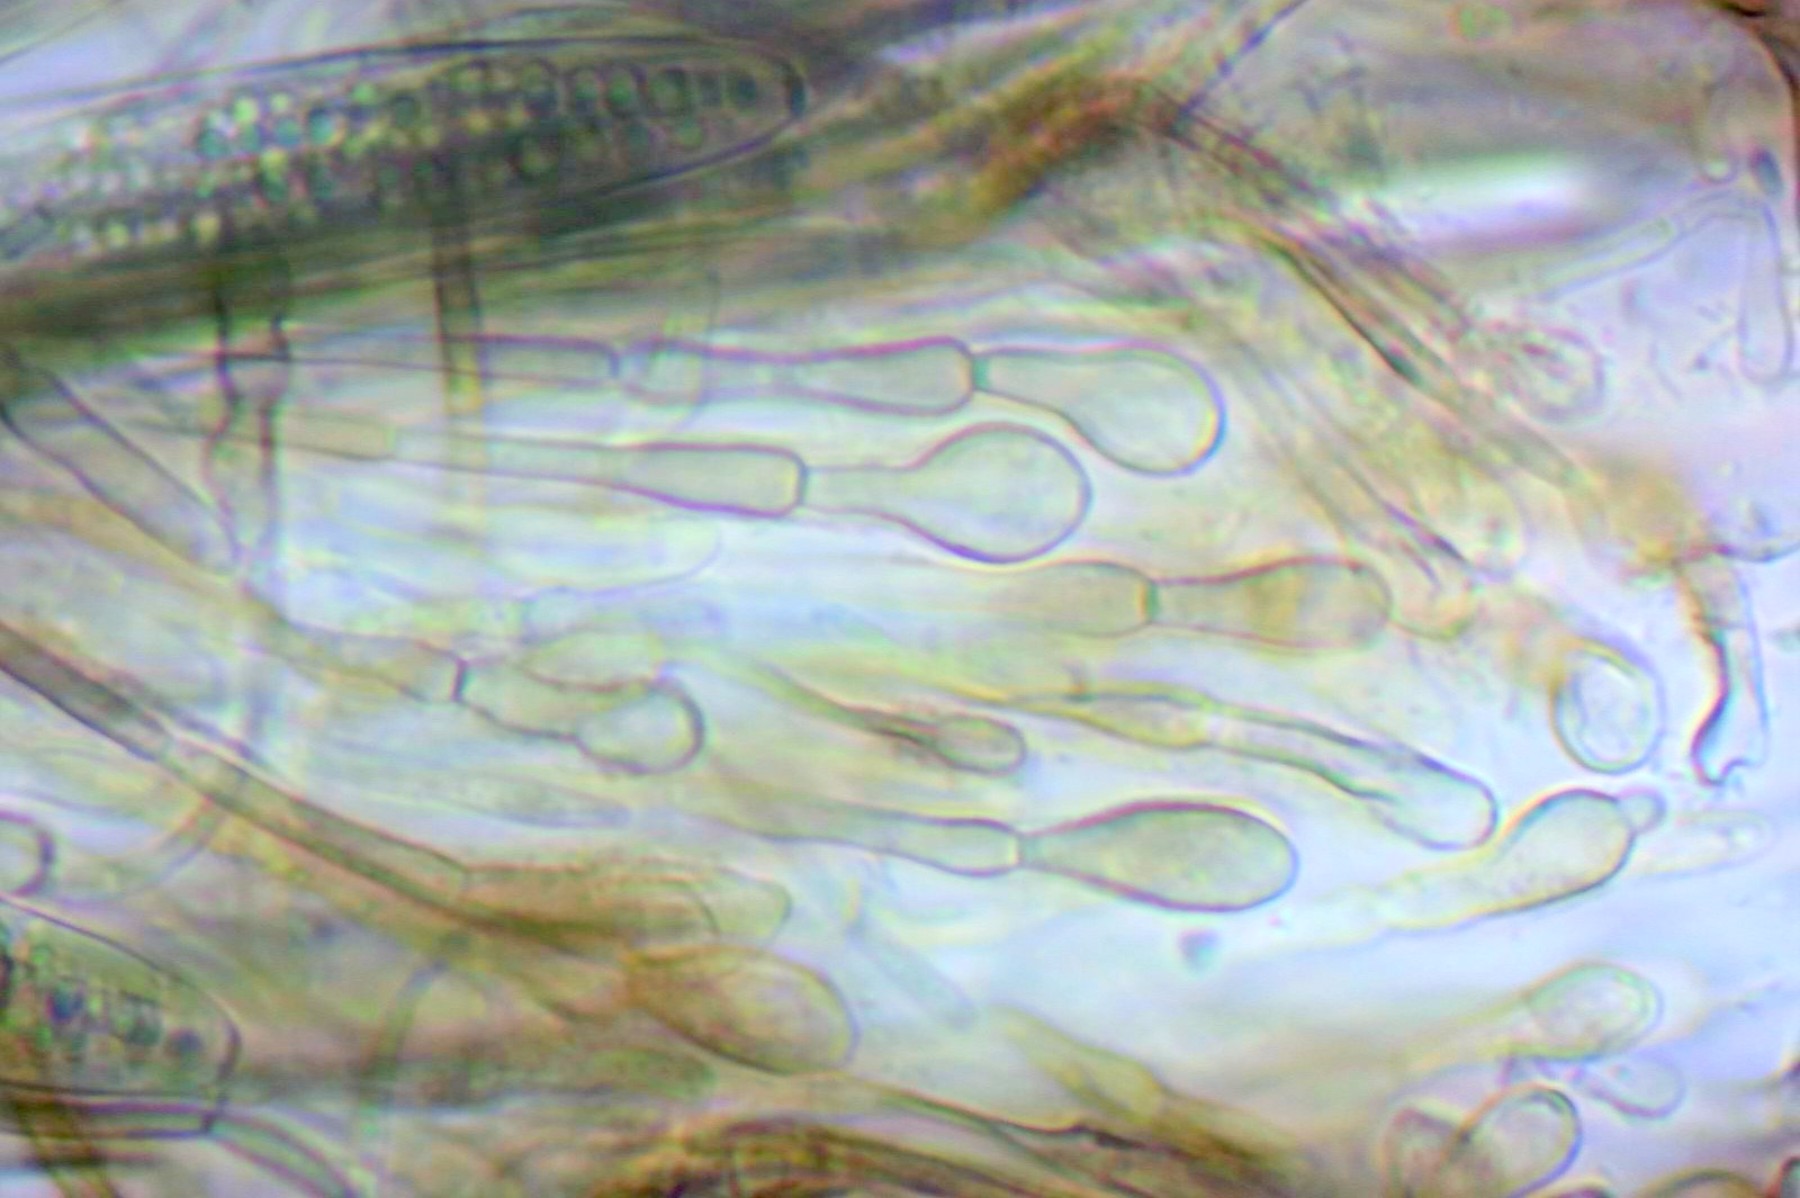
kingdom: Fungi
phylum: Ascomycota
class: Geoglossomycetes
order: Geoglossales
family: Geoglossaceae
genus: Glutinoglossum
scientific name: Glutinoglossum glutinosum
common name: slimet jordtunge
